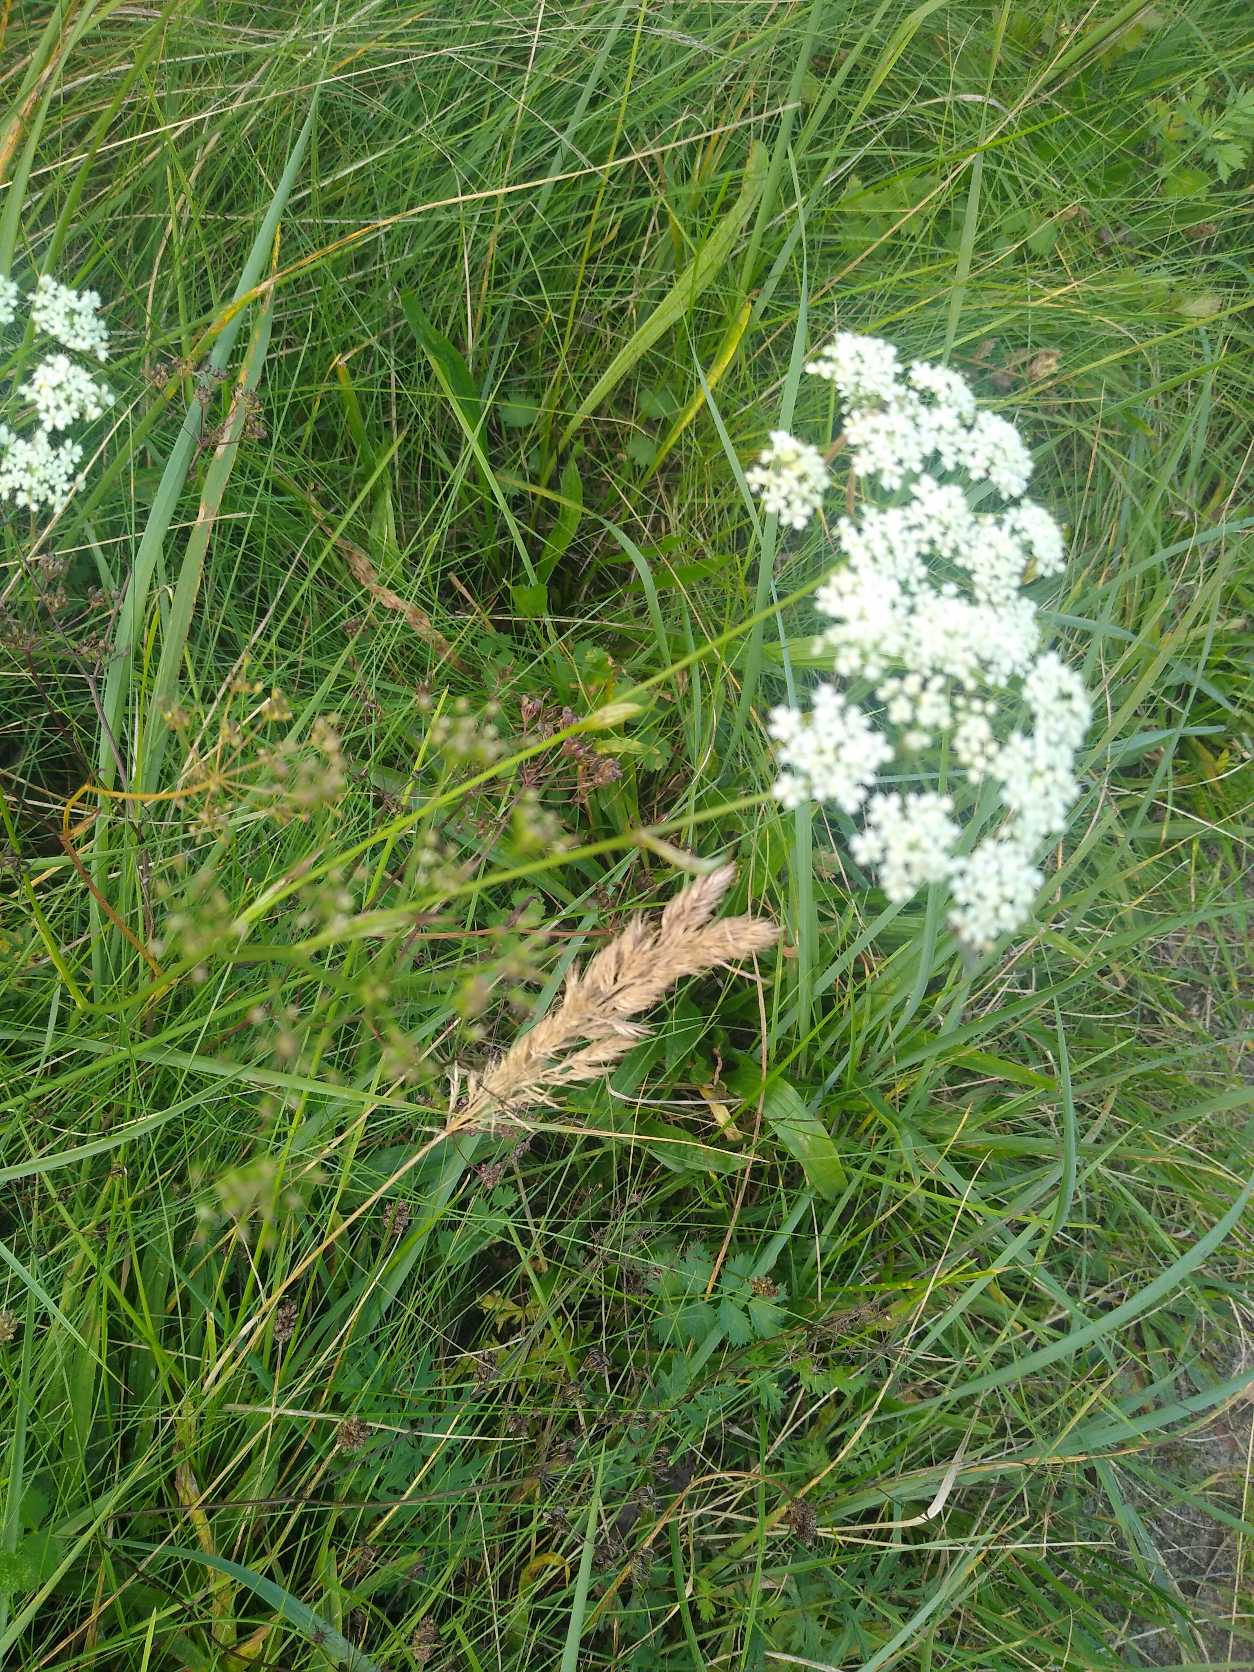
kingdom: Plantae
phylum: Tracheophyta
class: Magnoliopsida
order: Apiales
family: Apiaceae
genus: Pimpinella
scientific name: Pimpinella saxifraga
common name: Almindelig pimpinelle
